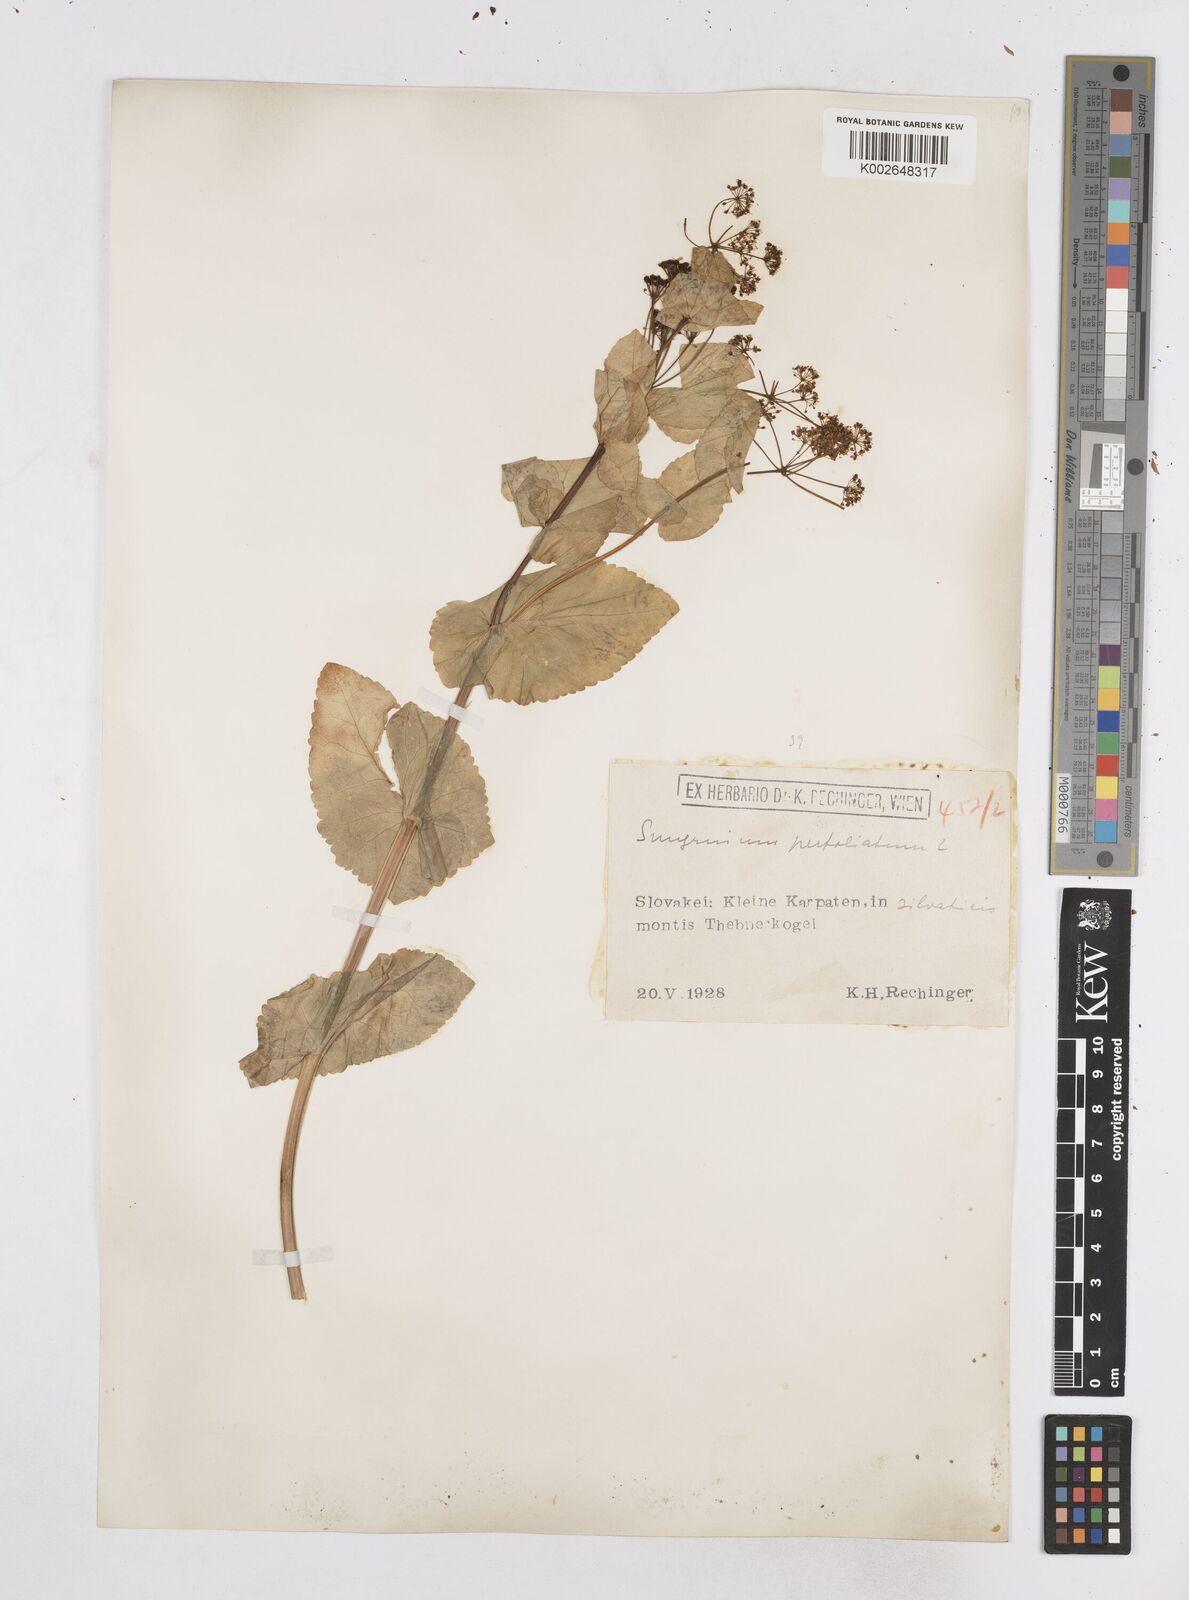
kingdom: Plantae
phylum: Tracheophyta
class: Magnoliopsida
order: Apiales
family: Apiaceae
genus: Smyrnium
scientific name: Smyrnium perfoliatum
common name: Perfoliate alexanders
